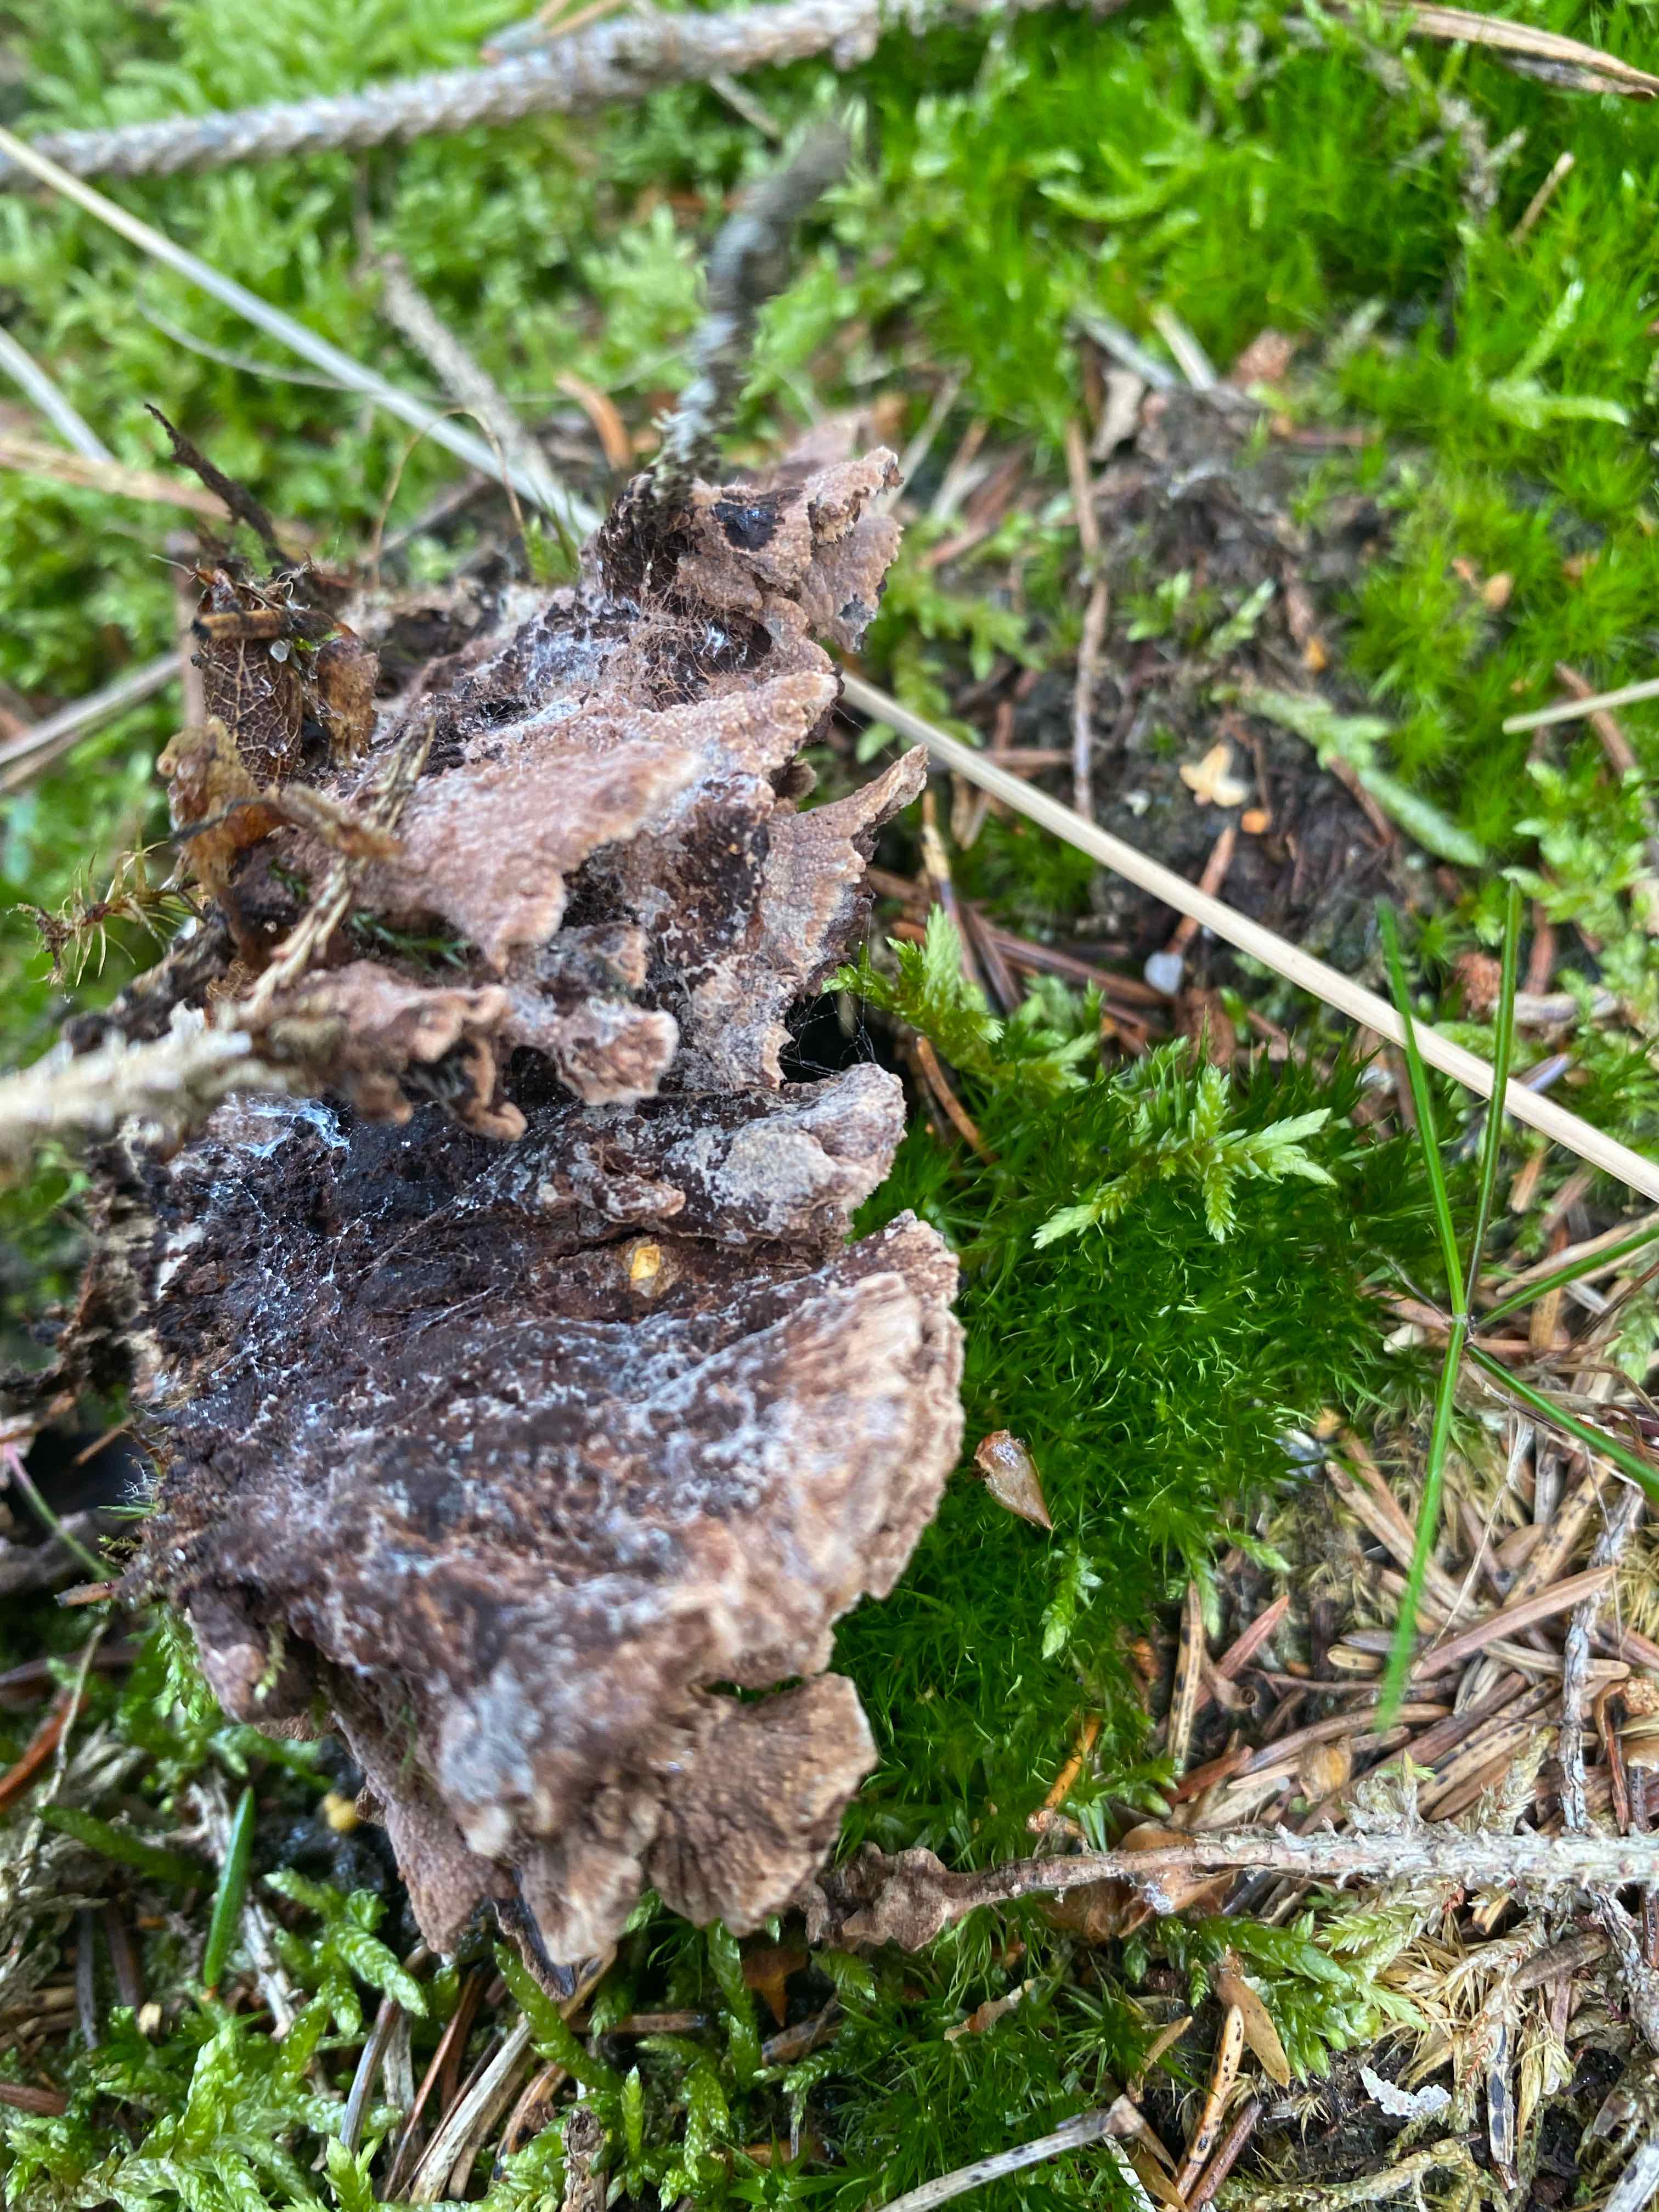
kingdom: Fungi
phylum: Basidiomycota
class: Agaricomycetes
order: Thelephorales
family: Thelephoraceae
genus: Thelephora
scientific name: Thelephora terrestris
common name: fliget frynsesvamp
